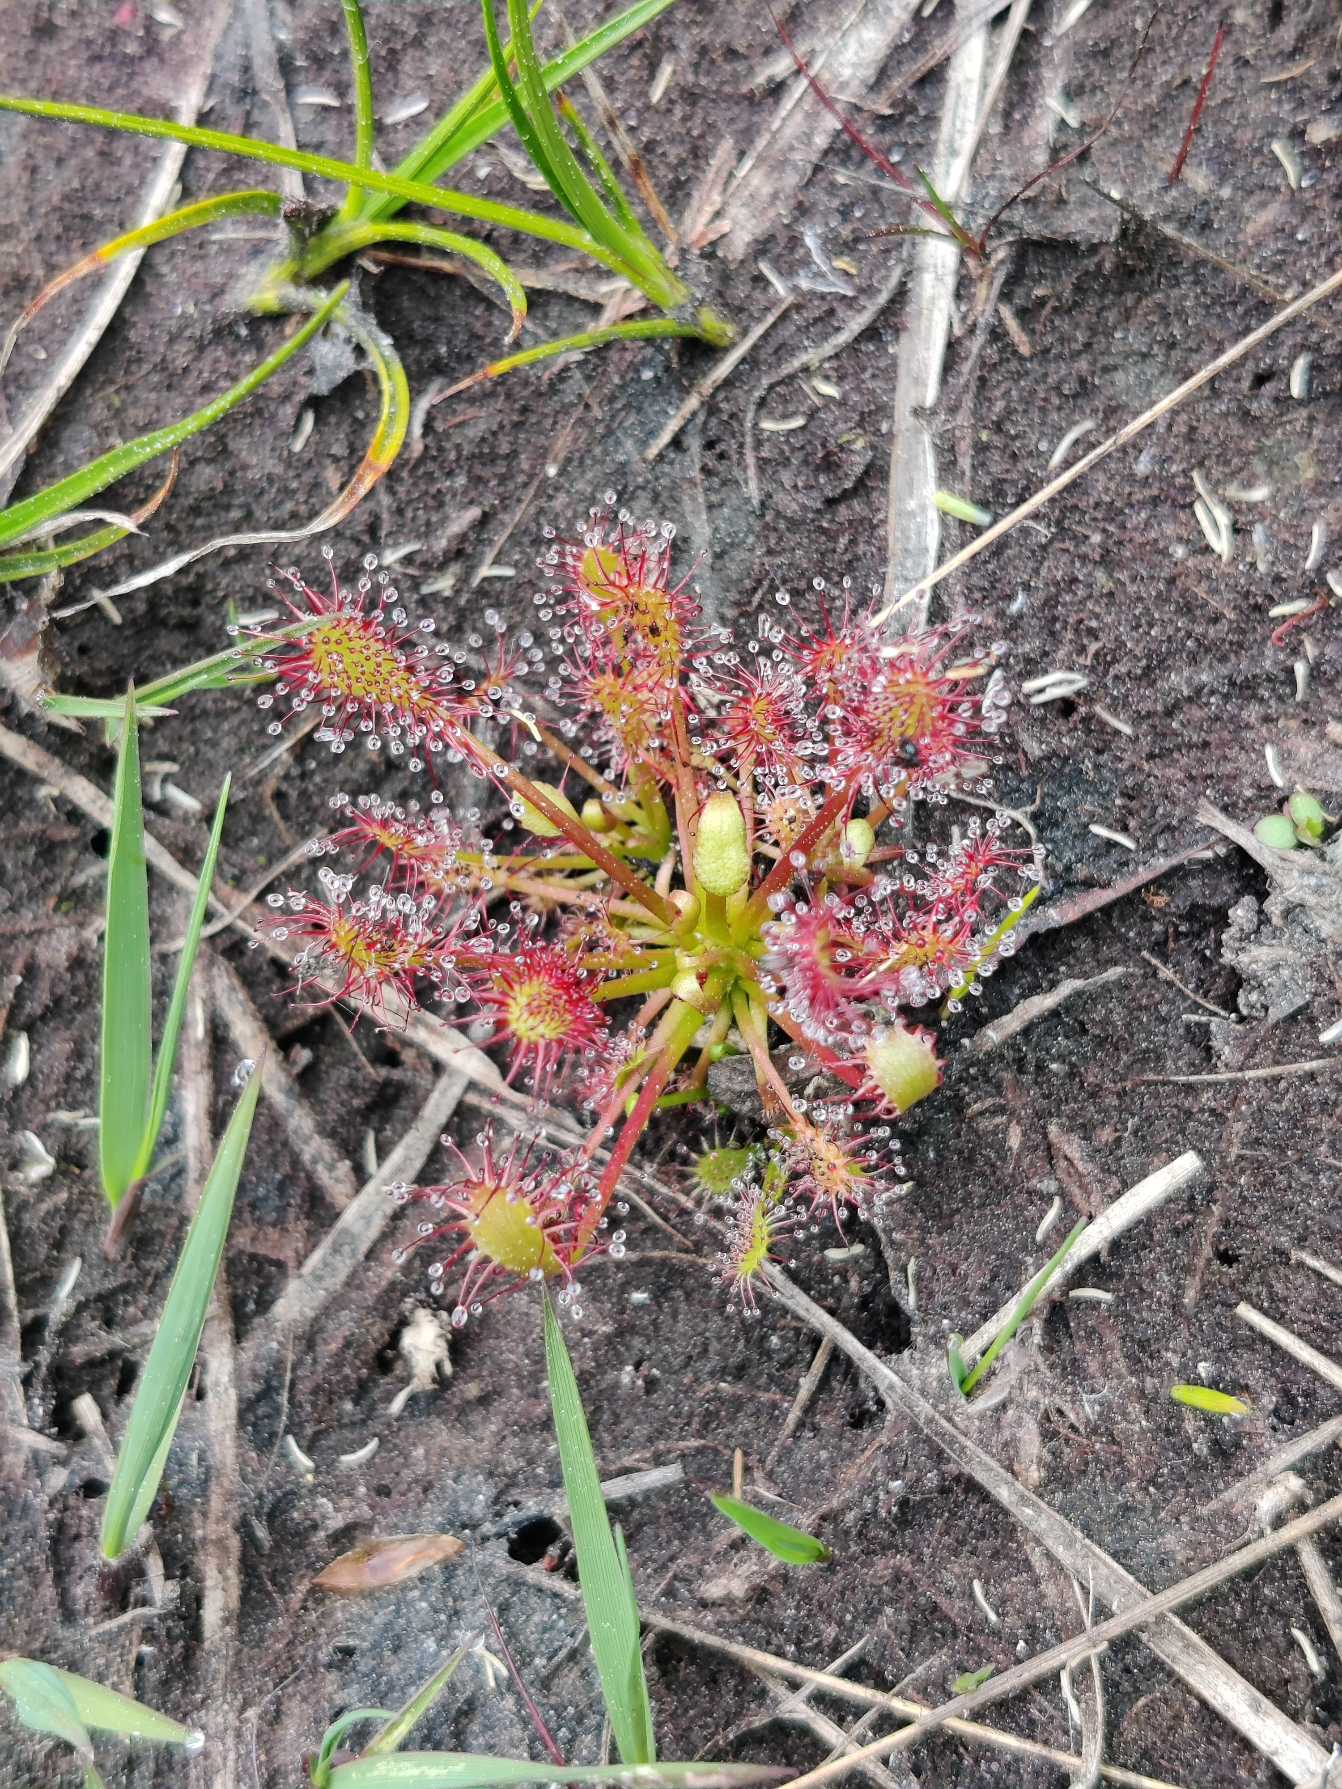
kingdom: Plantae
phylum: Tracheophyta
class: Magnoliopsida
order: Caryophyllales
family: Droseraceae
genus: Drosera
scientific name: Drosera intermedia
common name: Liden soldug
